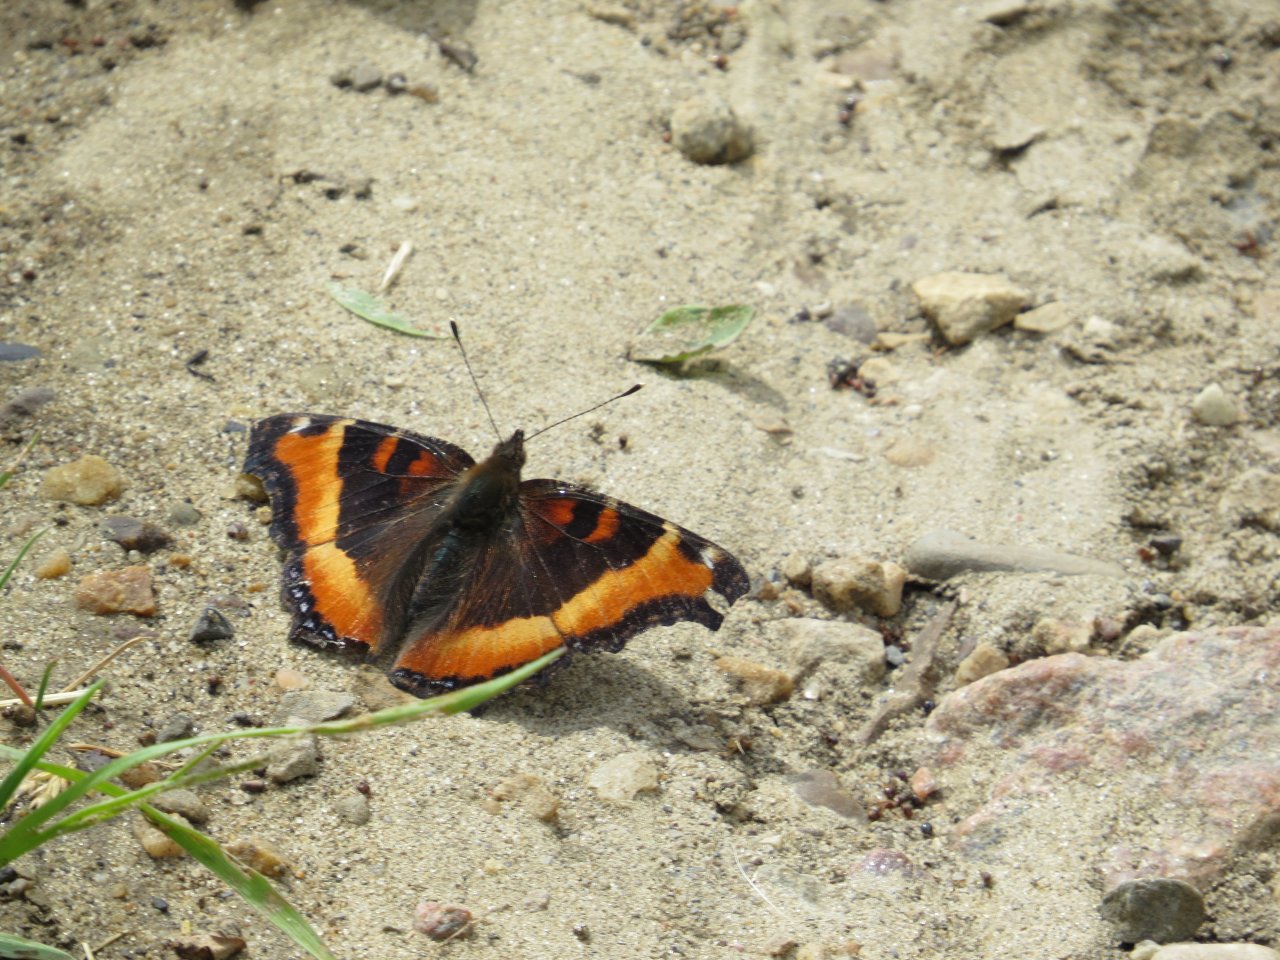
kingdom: Animalia
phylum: Arthropoda
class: Insecta
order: Lepidoptera
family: Nymphalidae
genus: Aglais
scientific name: Aglais milberti
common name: Milbert's Tortoiseshell
